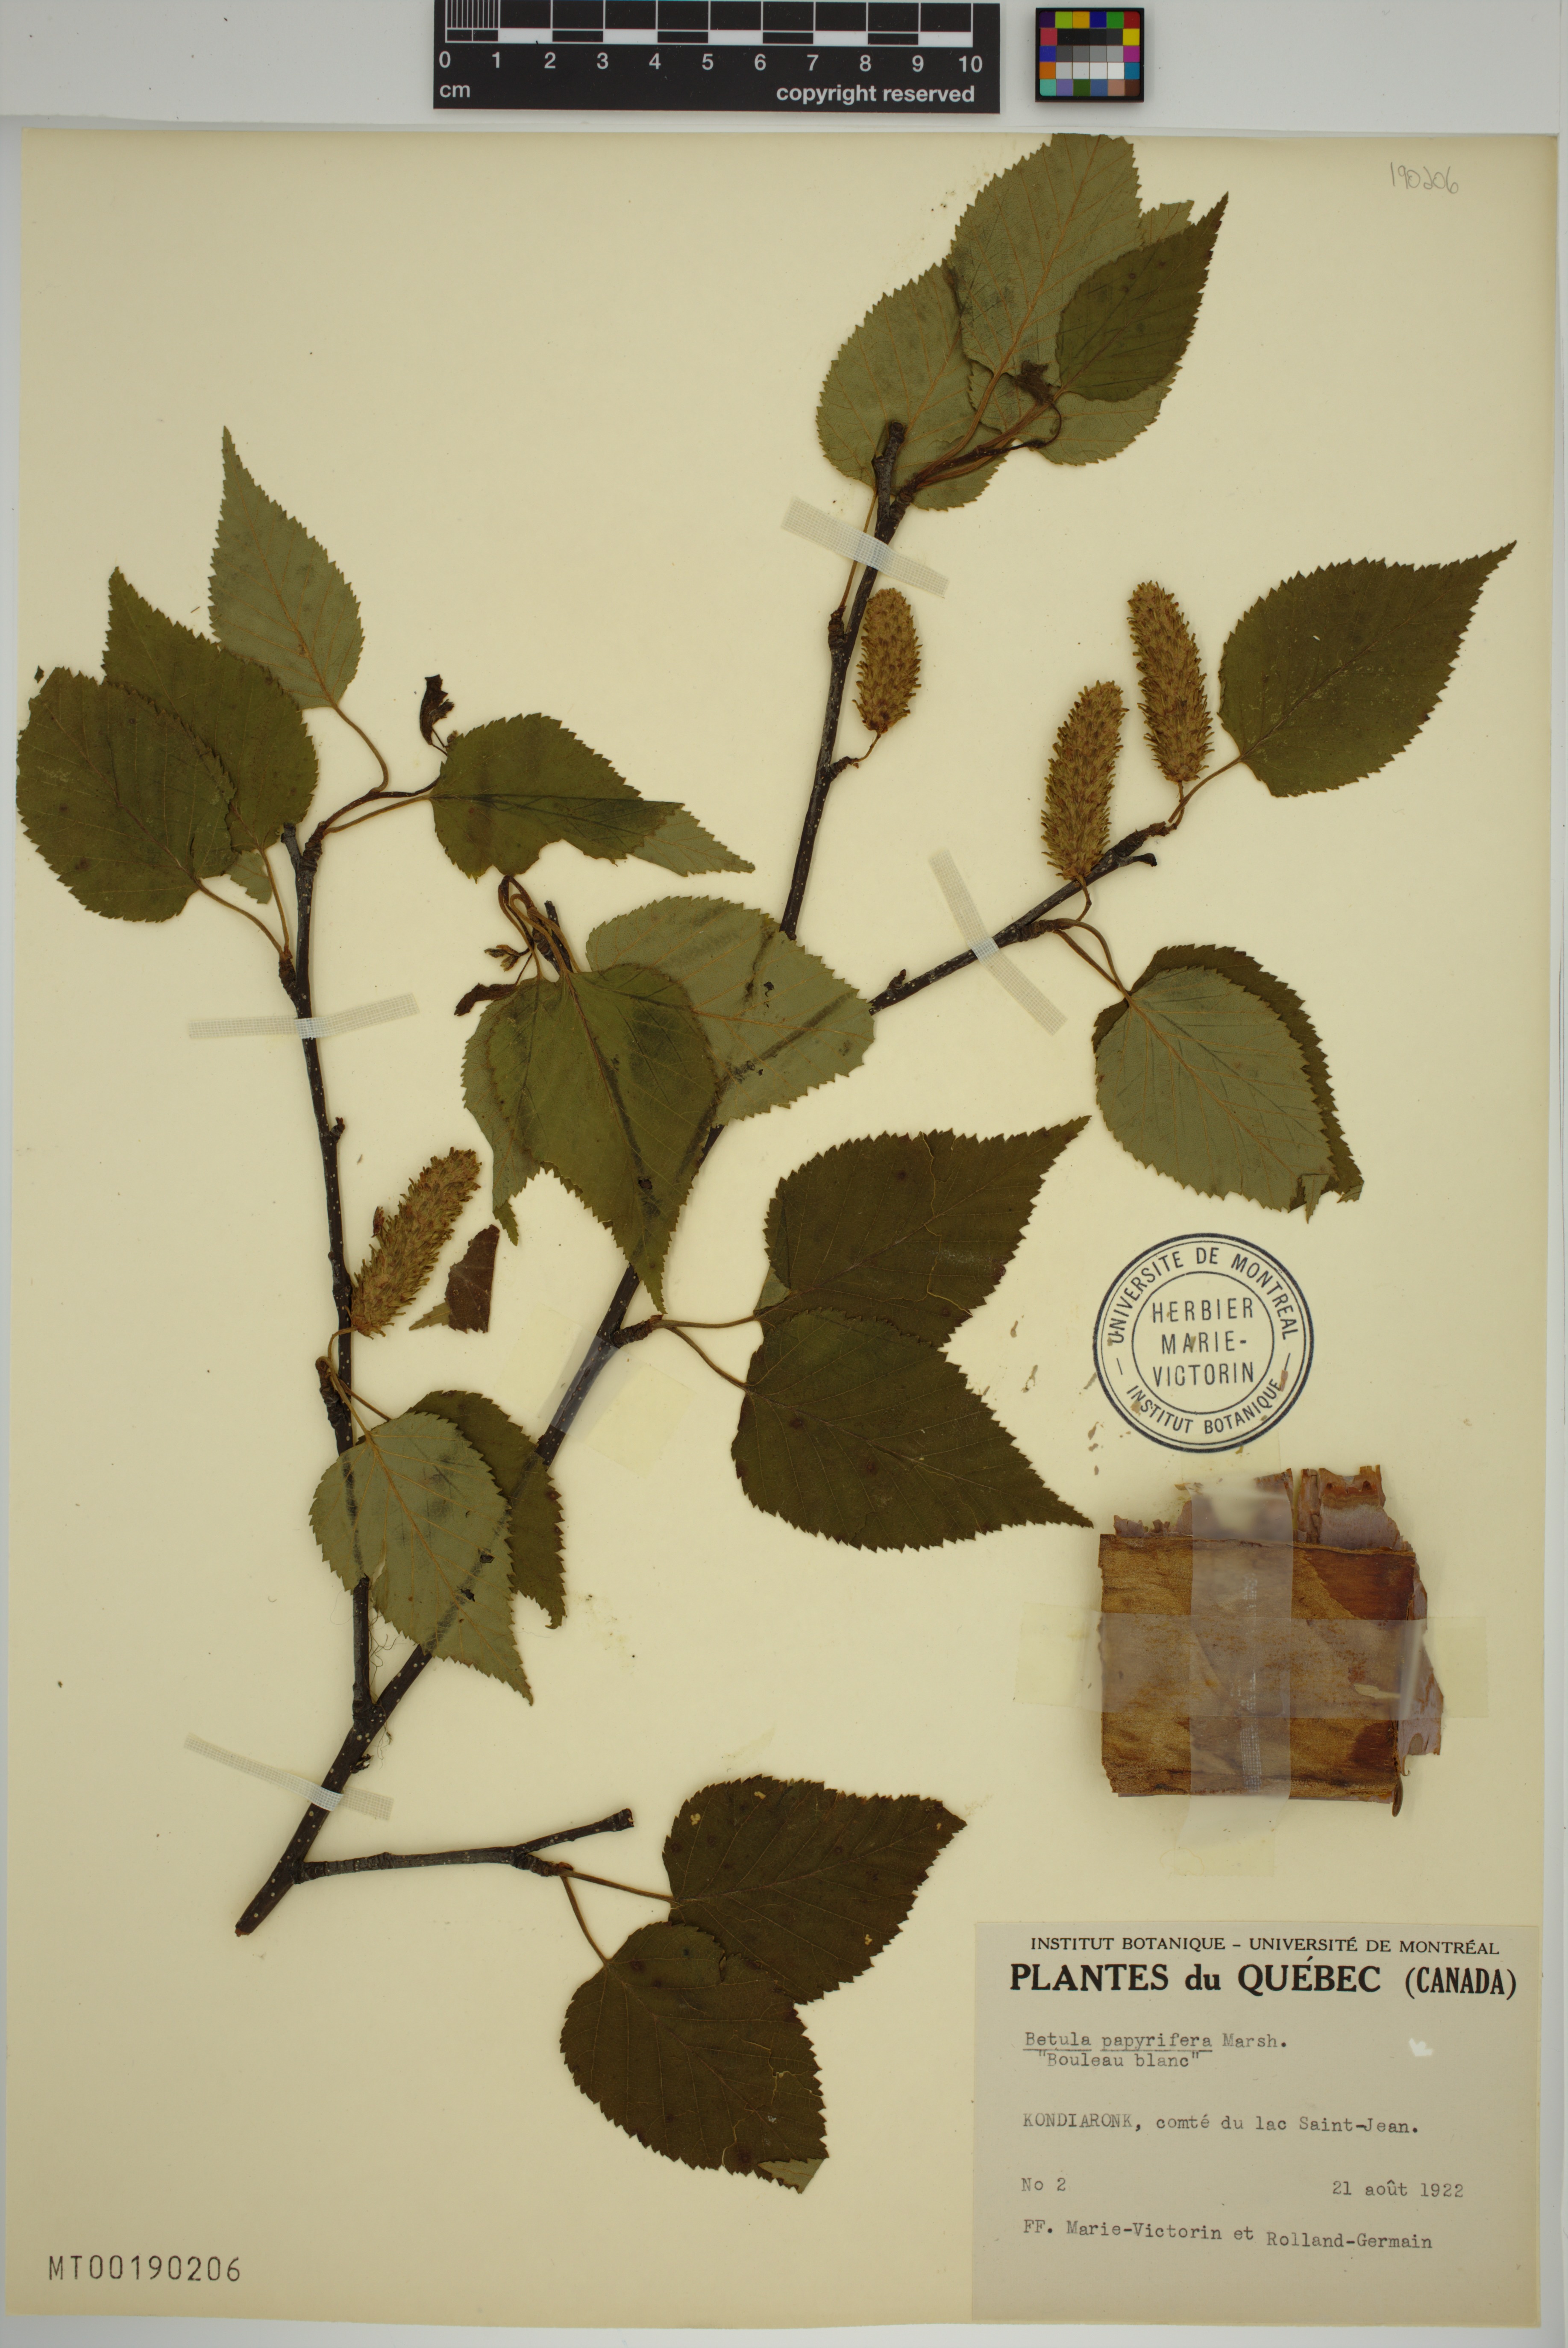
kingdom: Plantae
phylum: Tracheophyta
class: Magnoliopsida
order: Fagales
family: Betulaceae
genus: Betula
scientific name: Betula papyrifera
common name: Paper birch
